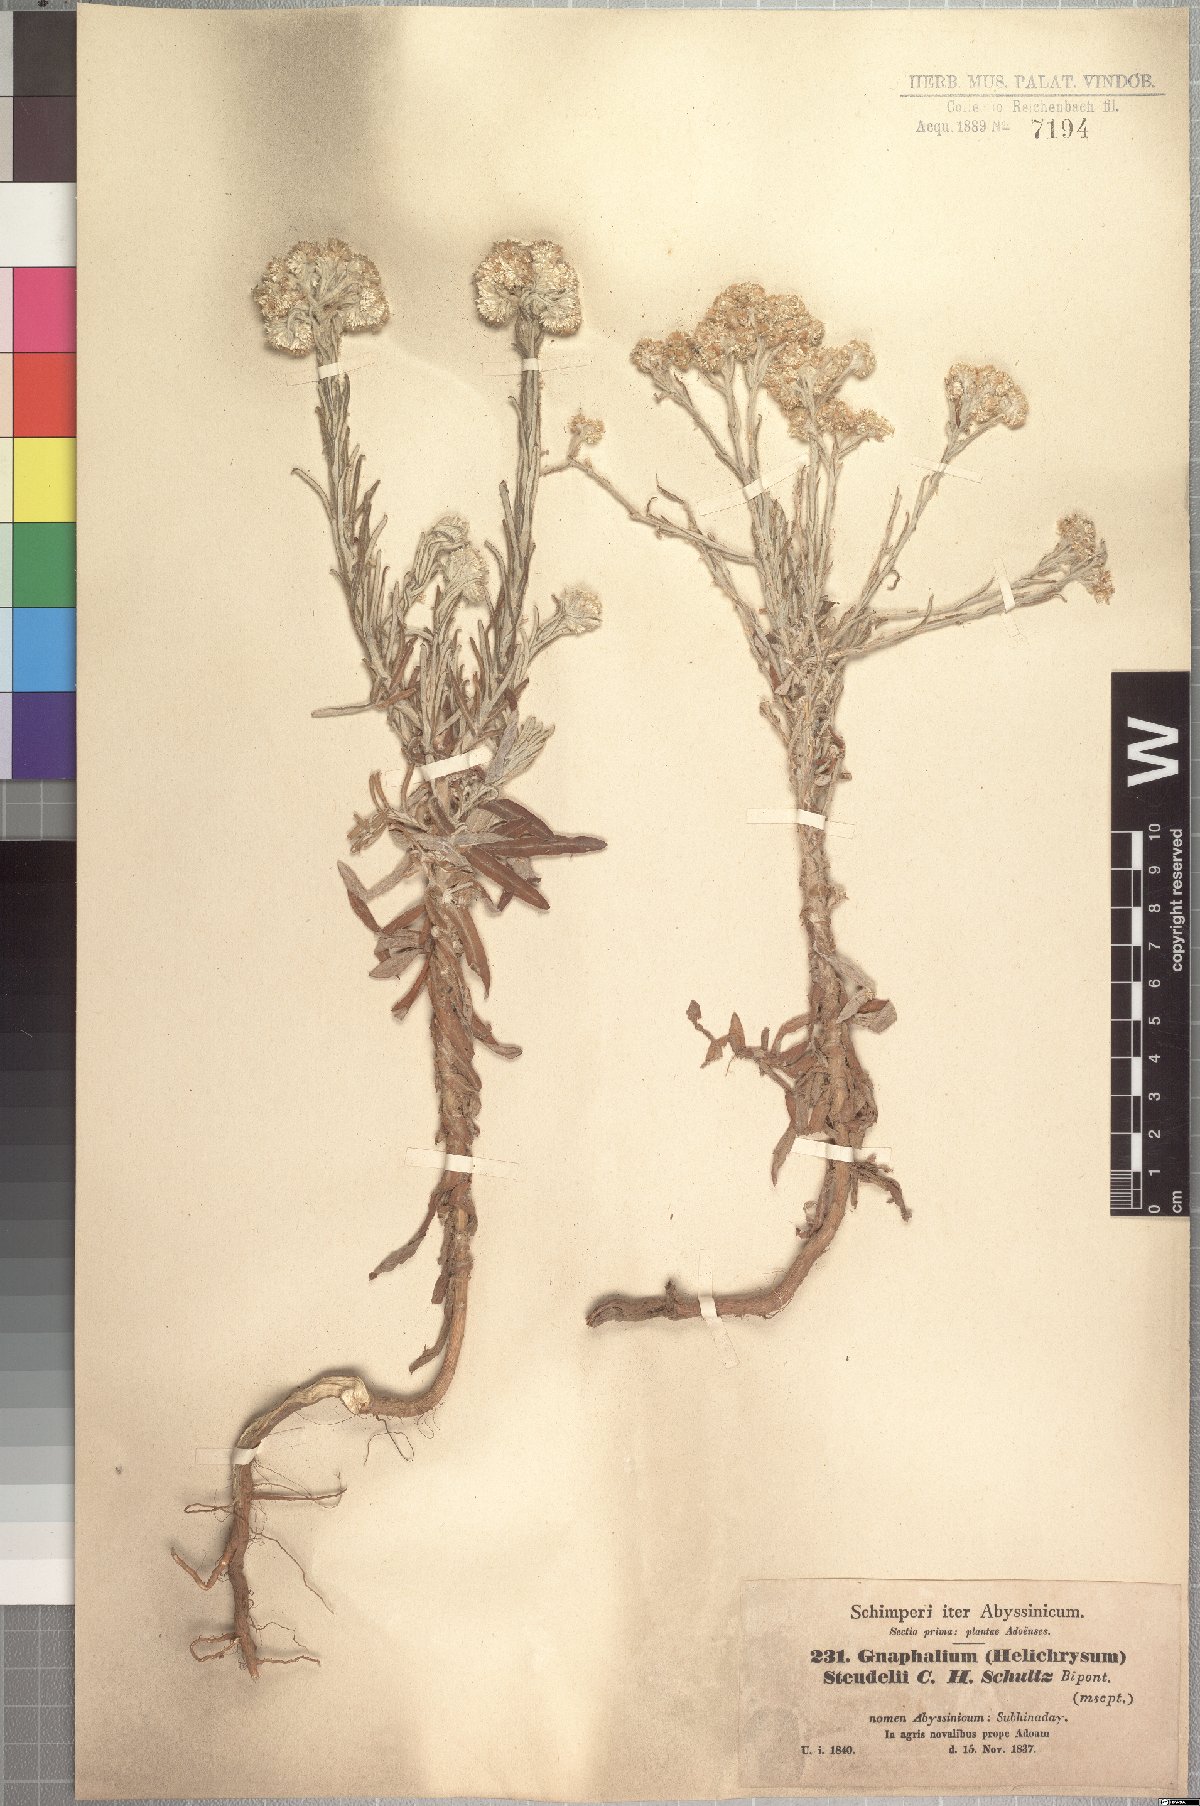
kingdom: Plantae
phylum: Tracheophyta
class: Magnoliopsida
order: Asterales
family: Asteraceae
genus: Pseudognaphalium
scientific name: Pseudognaphalium oligandrum
